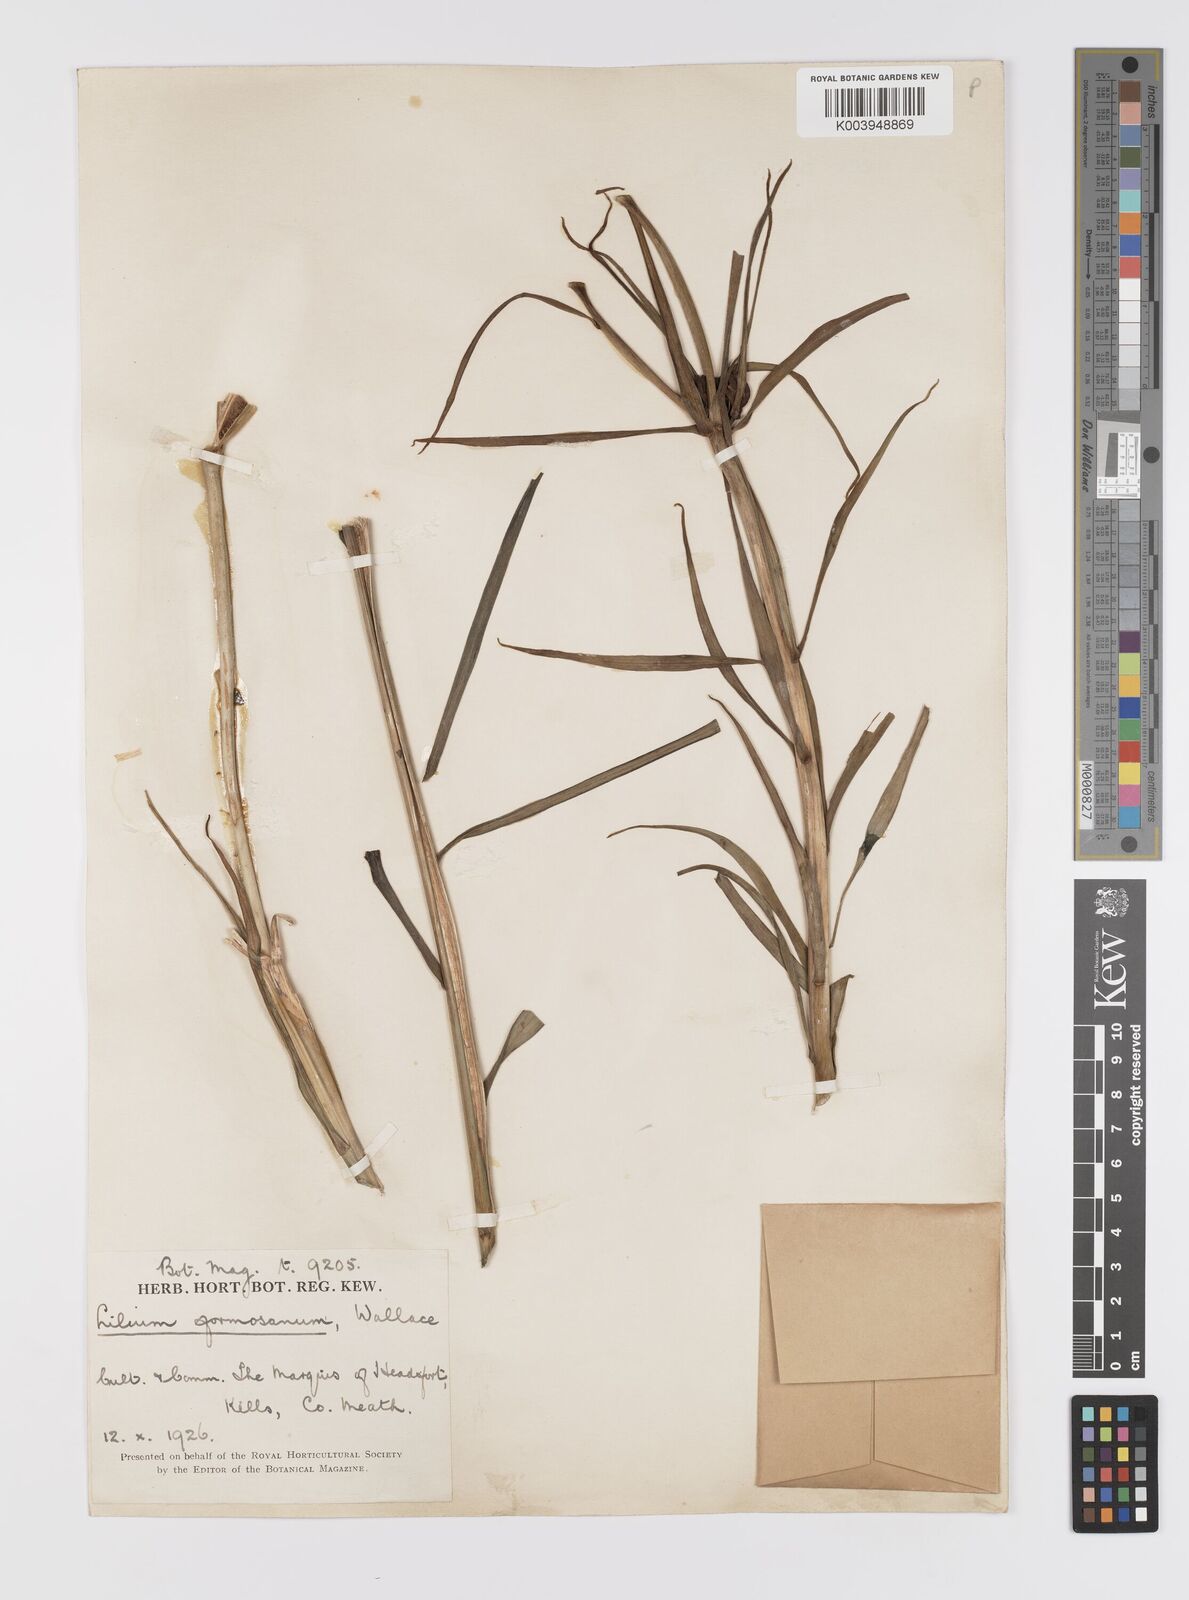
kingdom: Plantae
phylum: Tracheophyta
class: Liliopsida
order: Liliales
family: Liliaceae
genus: Lilium
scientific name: Lilium formosanum
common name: Formosa lily
